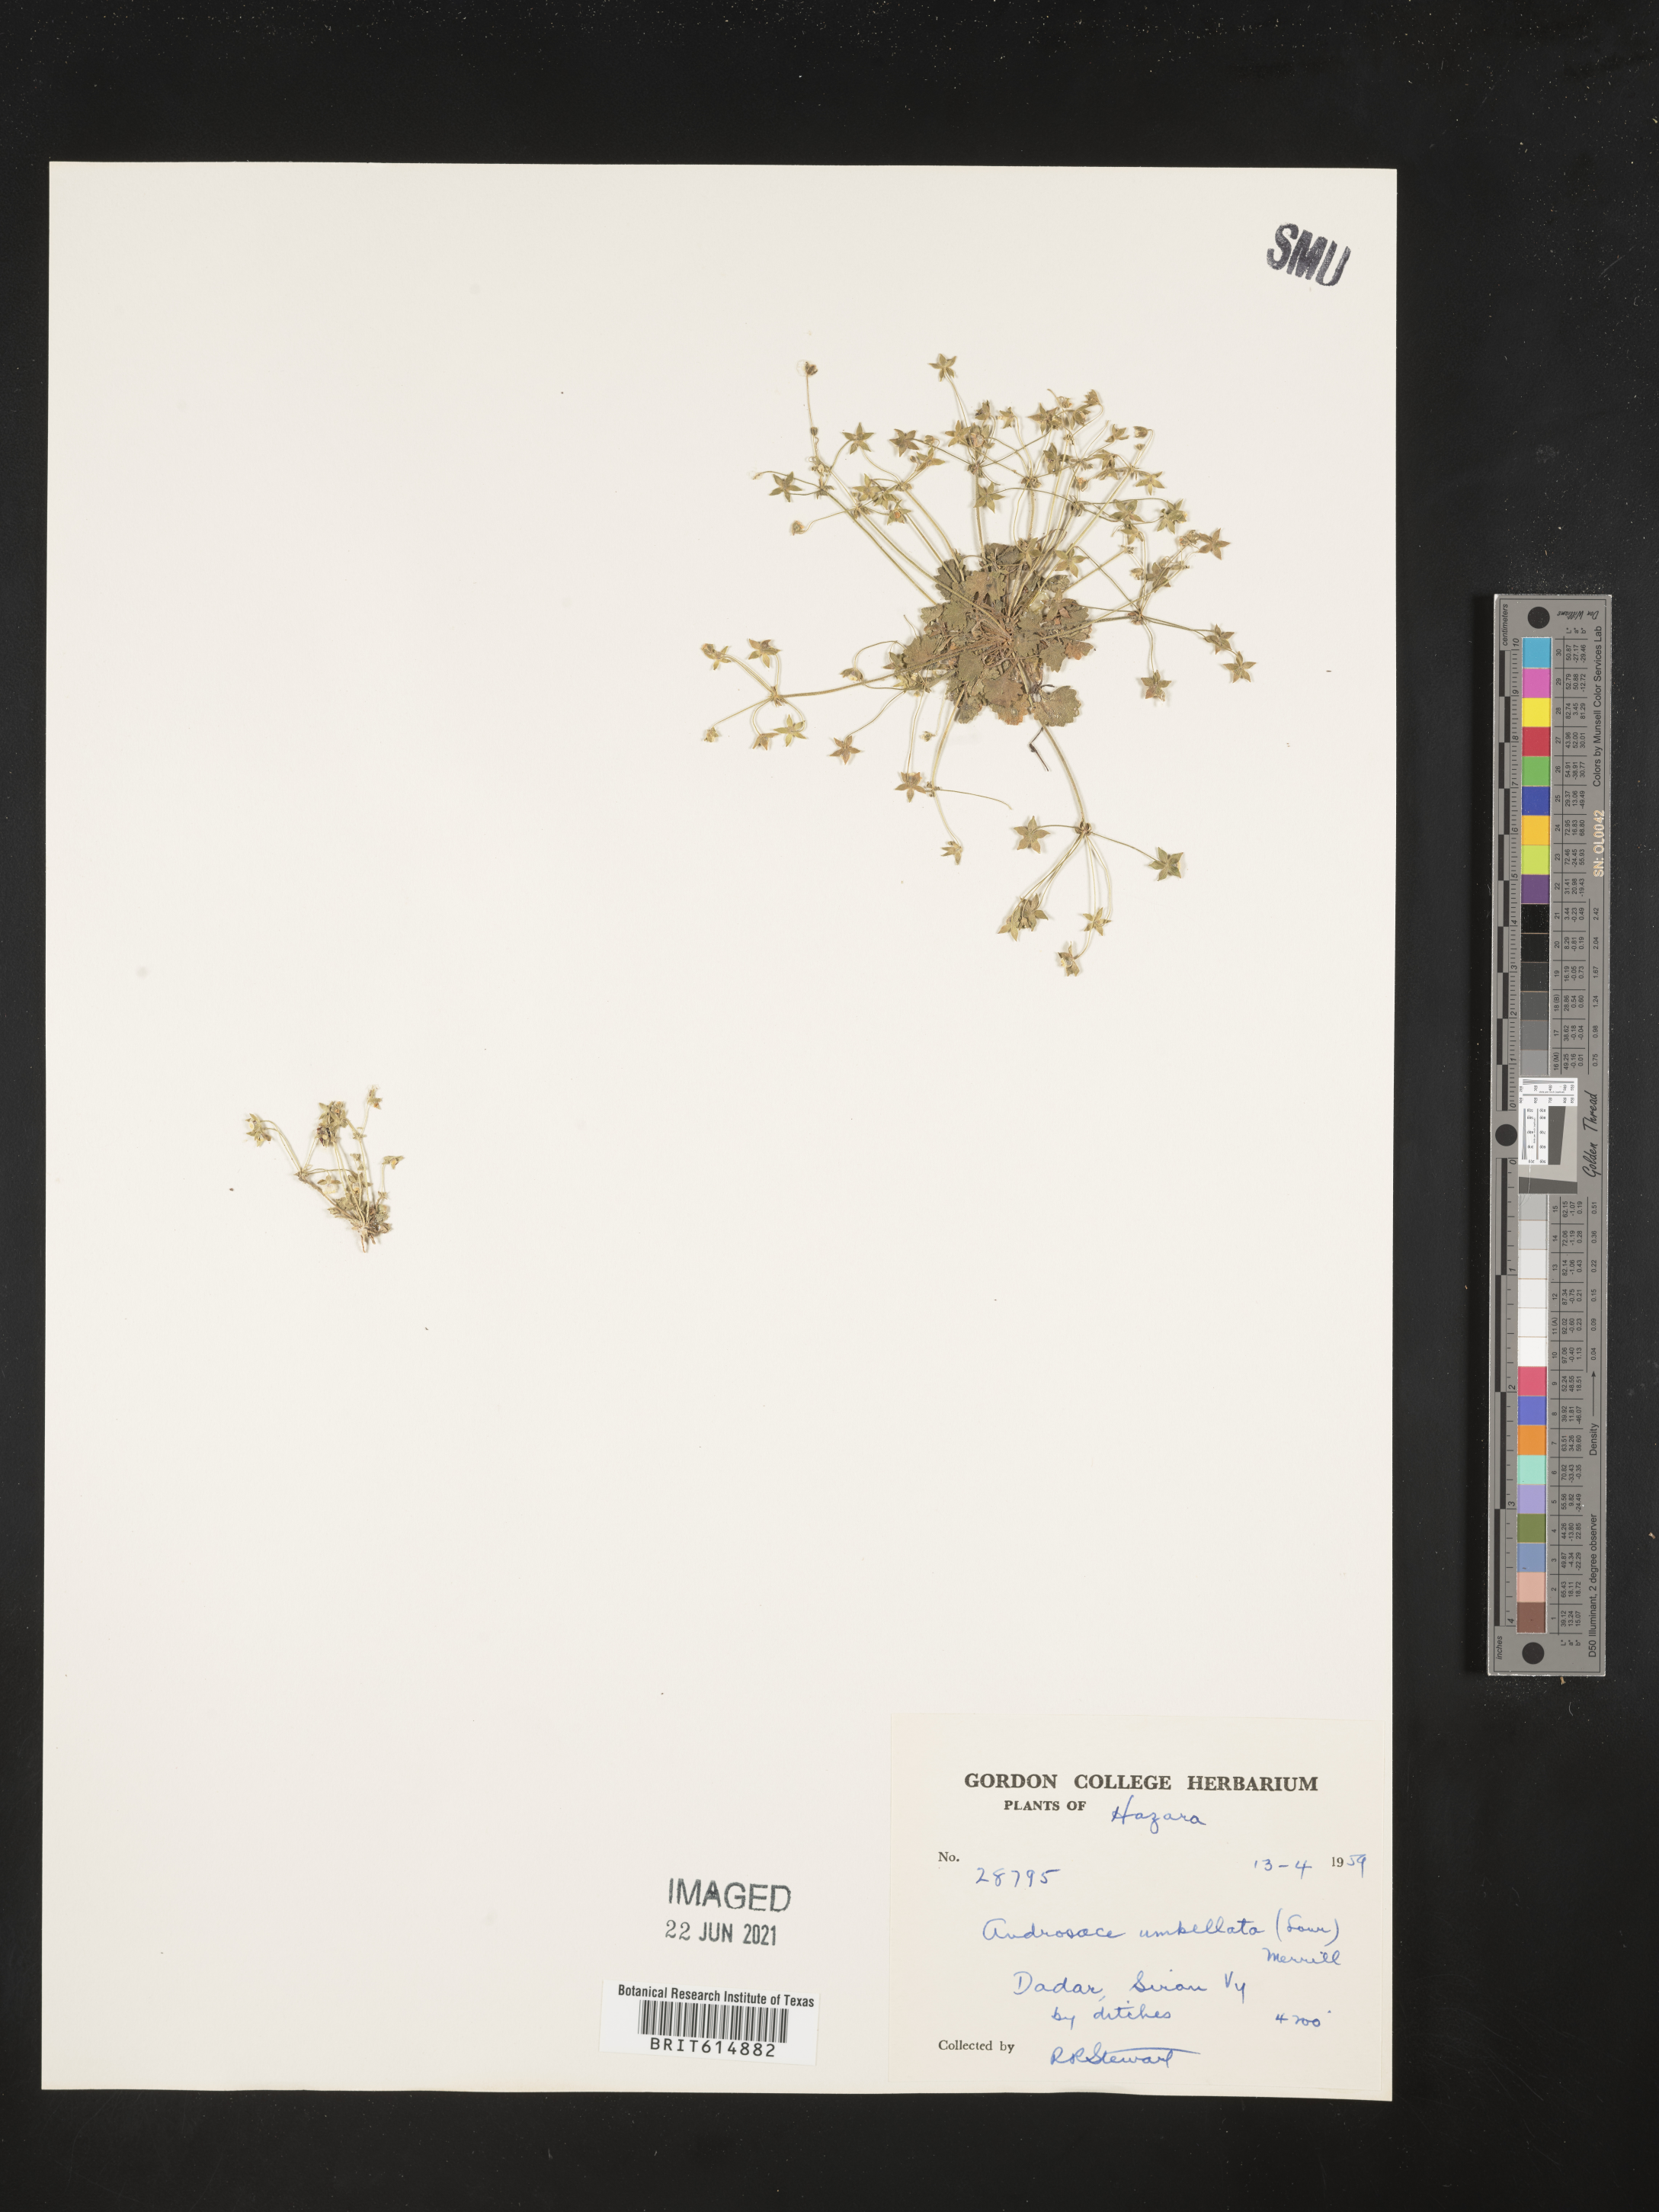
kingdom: Plantae
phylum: Tracheophyta
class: Magnoliopsida
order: Ericales
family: Primulaceae
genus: Androsace
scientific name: Androsace umbellata
